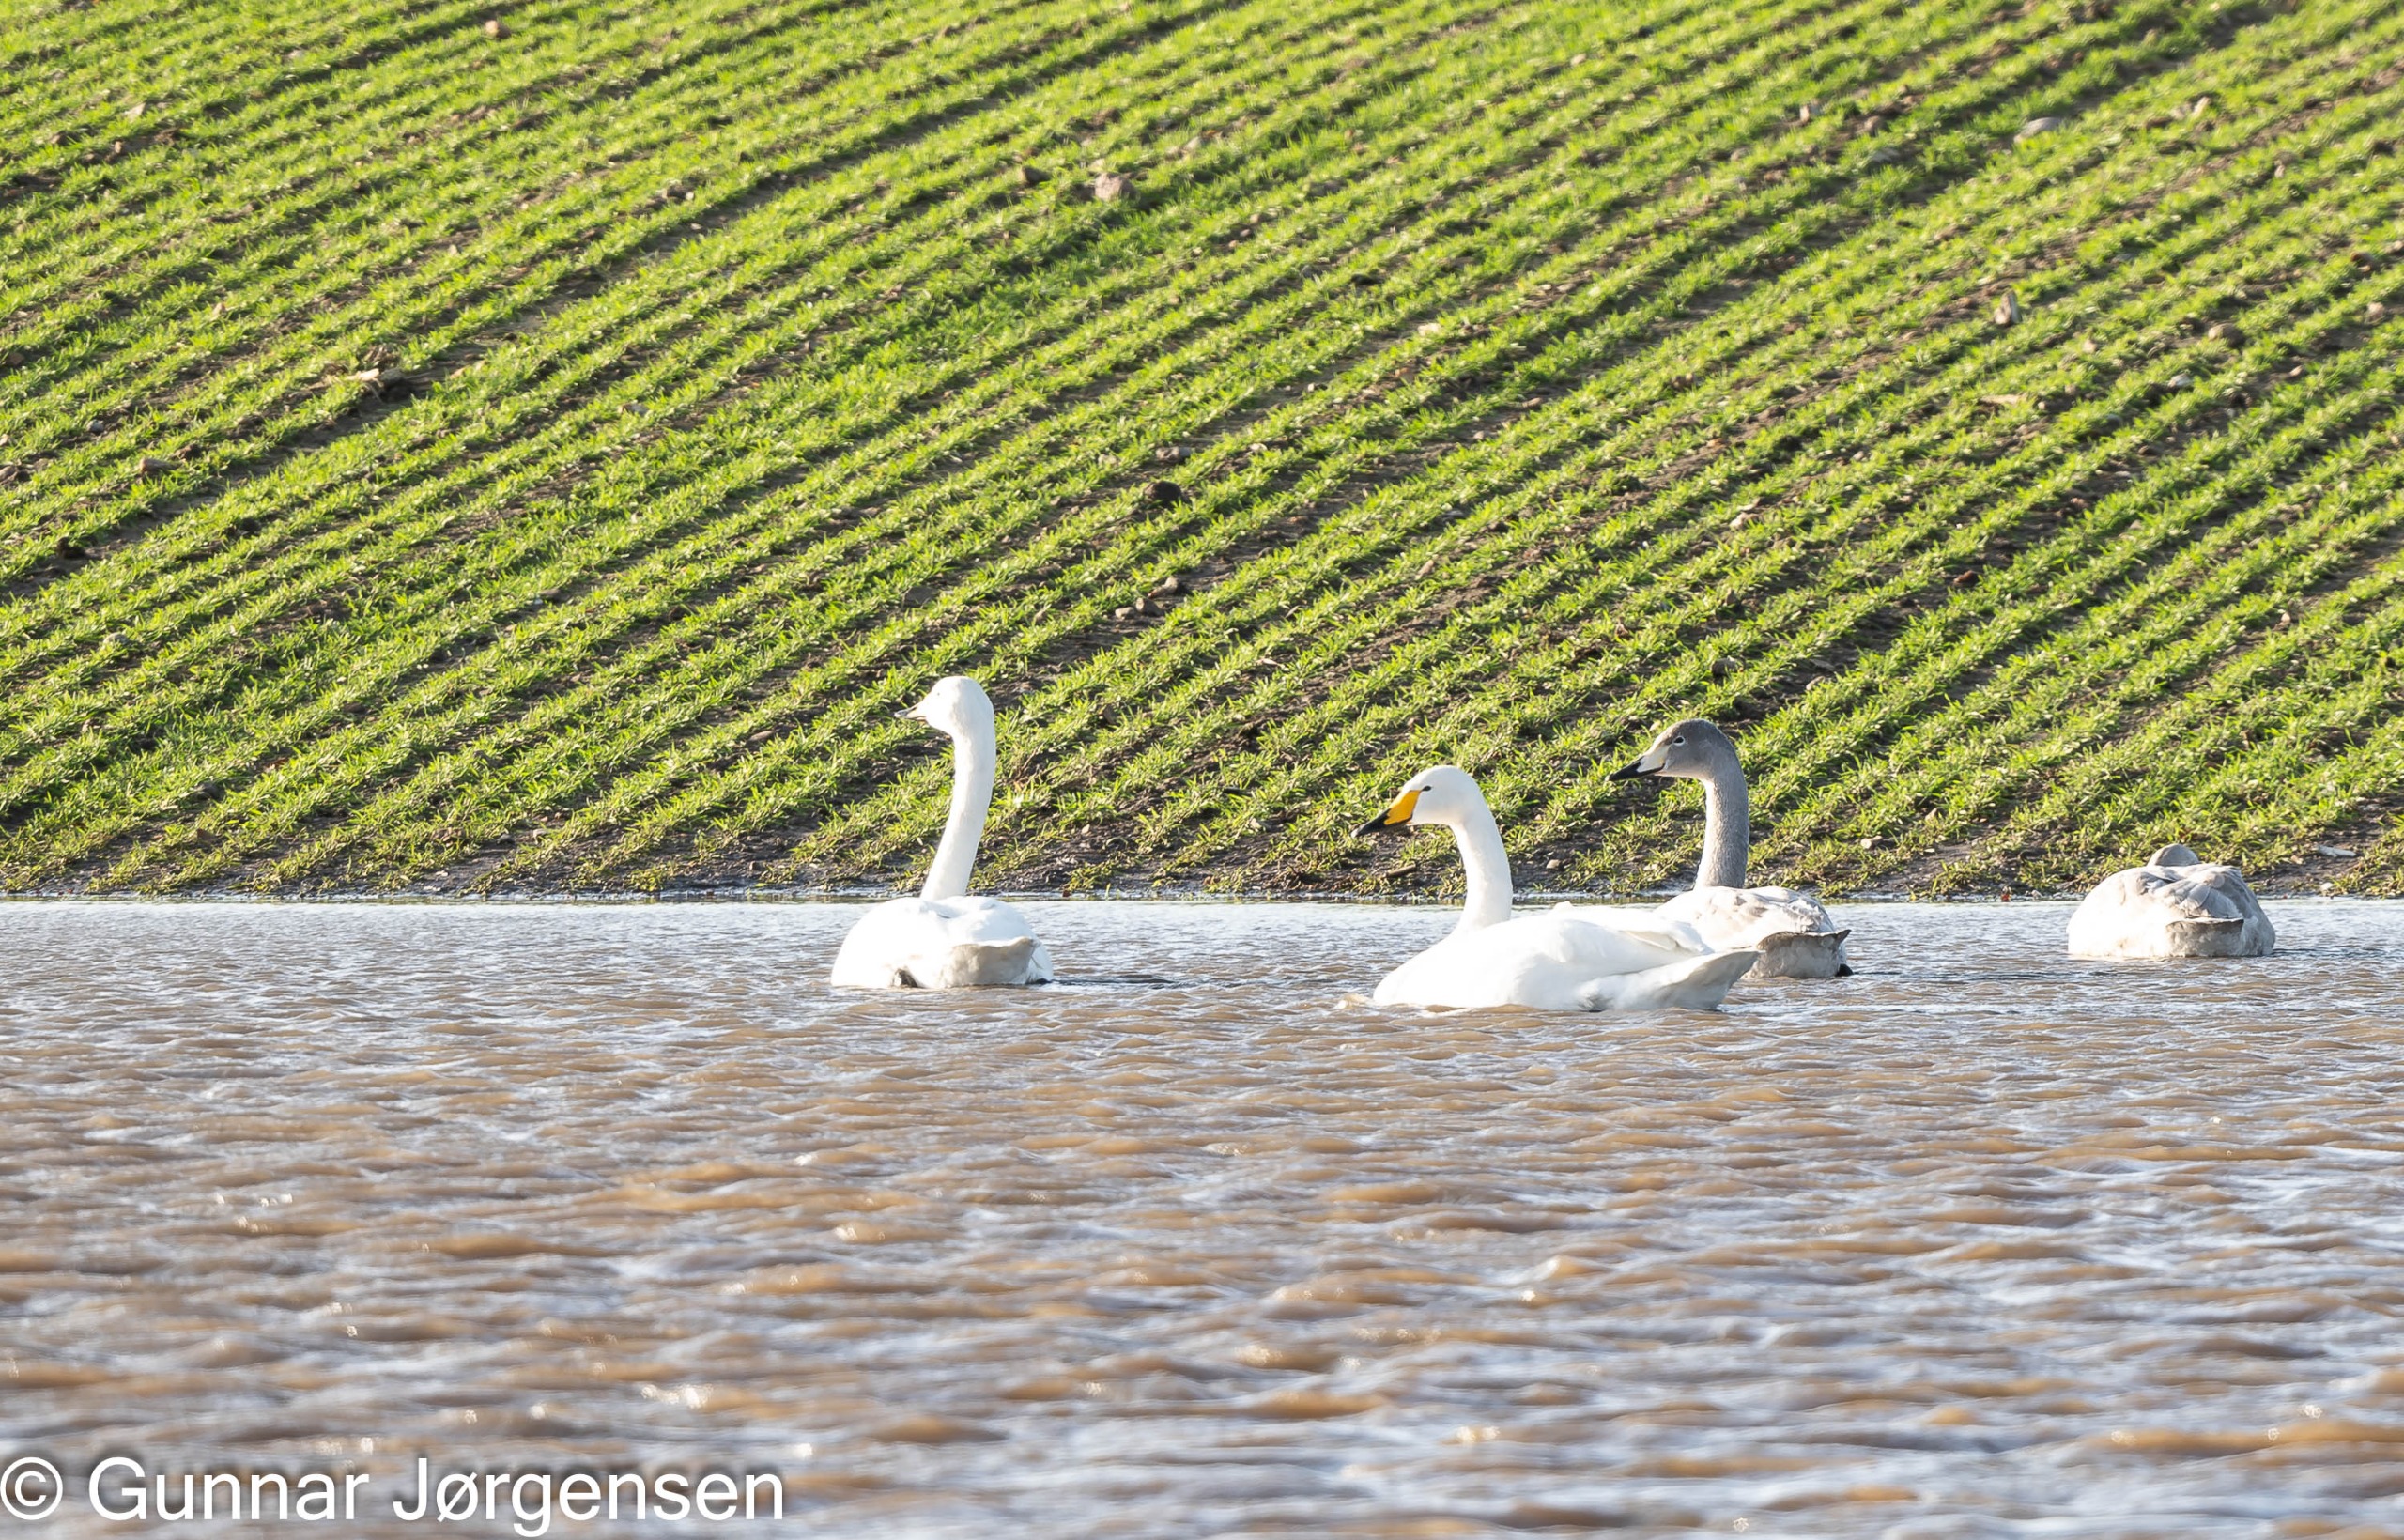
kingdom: Animalia
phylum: Chordata
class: Aves
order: Anseriformes
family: Anatidae
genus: Cygnus
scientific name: Cygnus cygnus
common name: Sangsvane
